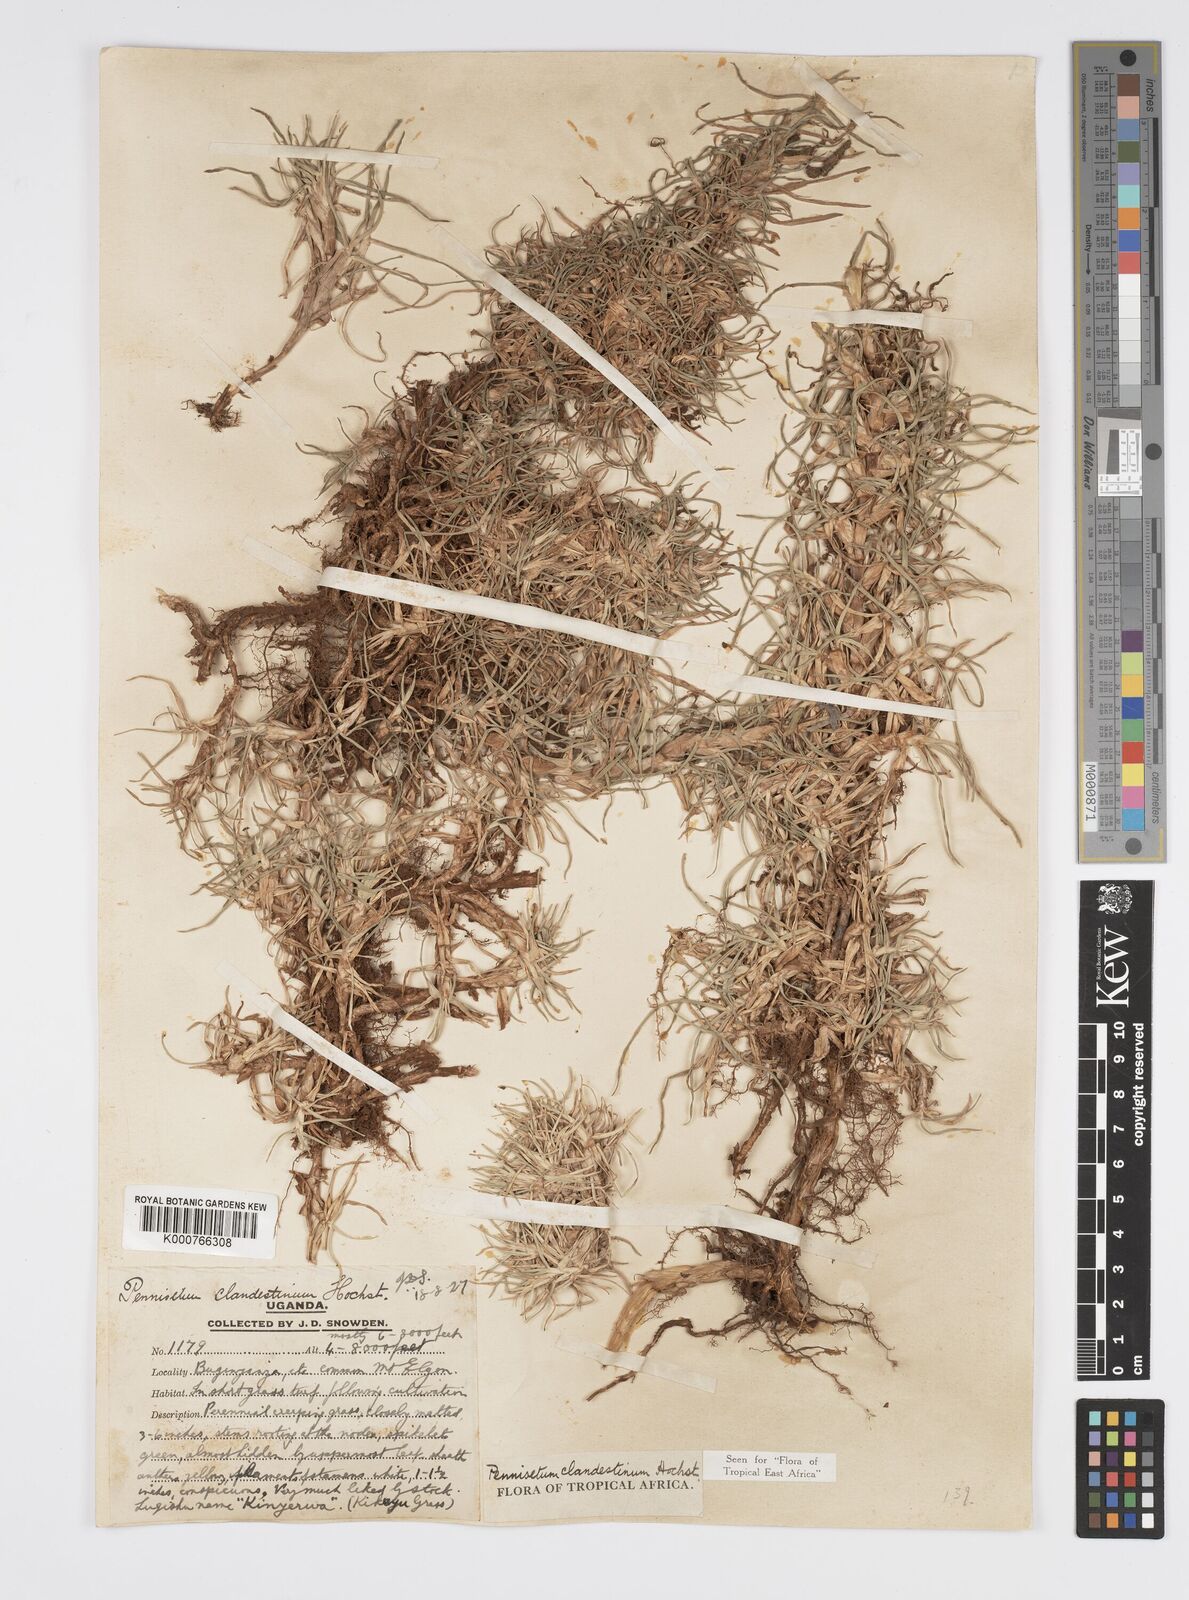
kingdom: Plantae
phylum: Tracheophyta
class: Liliopsida
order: Poales
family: Poaceae
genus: Cenchrus
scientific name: Cenchrus clandestinus
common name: Kikuyugrass
